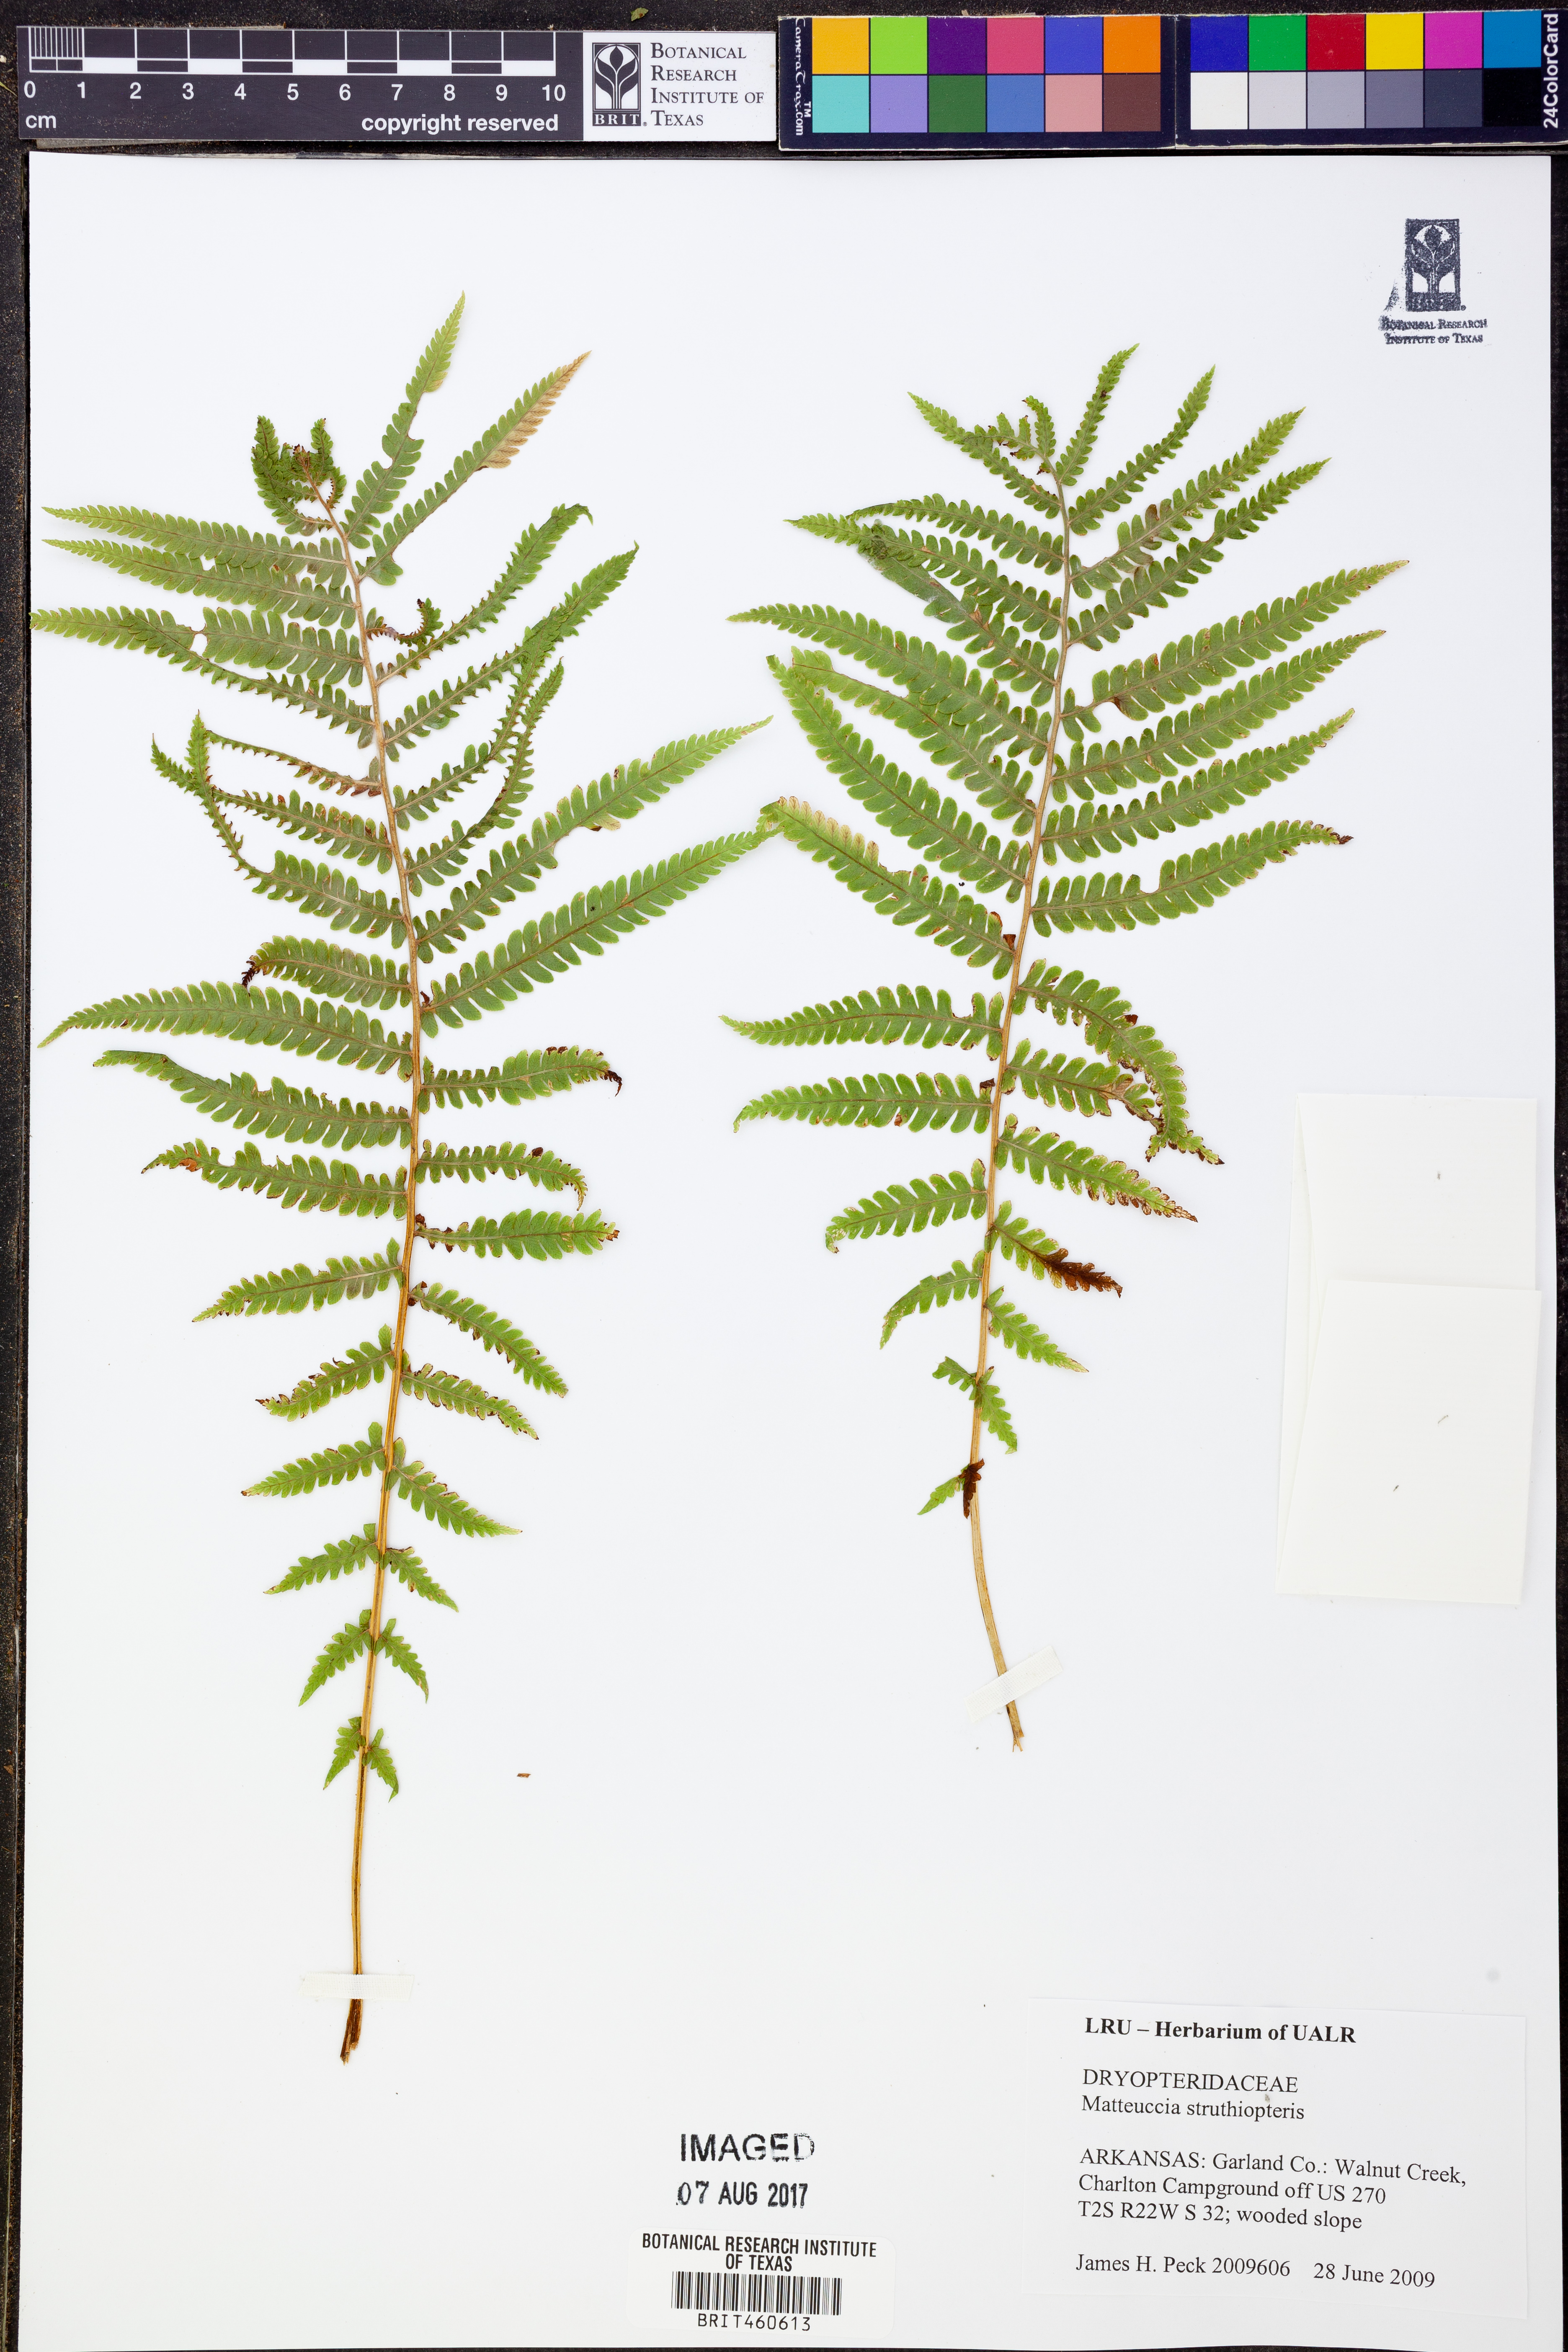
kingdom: Plantae
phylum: Tracheophyta
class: Polypodiopsida
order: Polypodiales
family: Onocleaceae
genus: Matteuccia
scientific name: Matteuccia struthiopteris
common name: Ostrich fern
